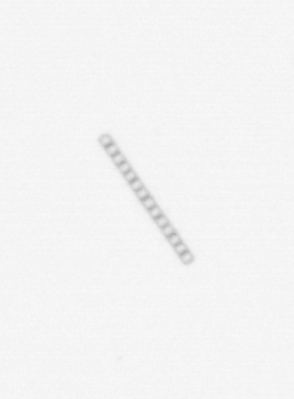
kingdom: Chromista
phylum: Ochrophyta
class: Bacillariophyceae
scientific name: Bacillariophyceae
